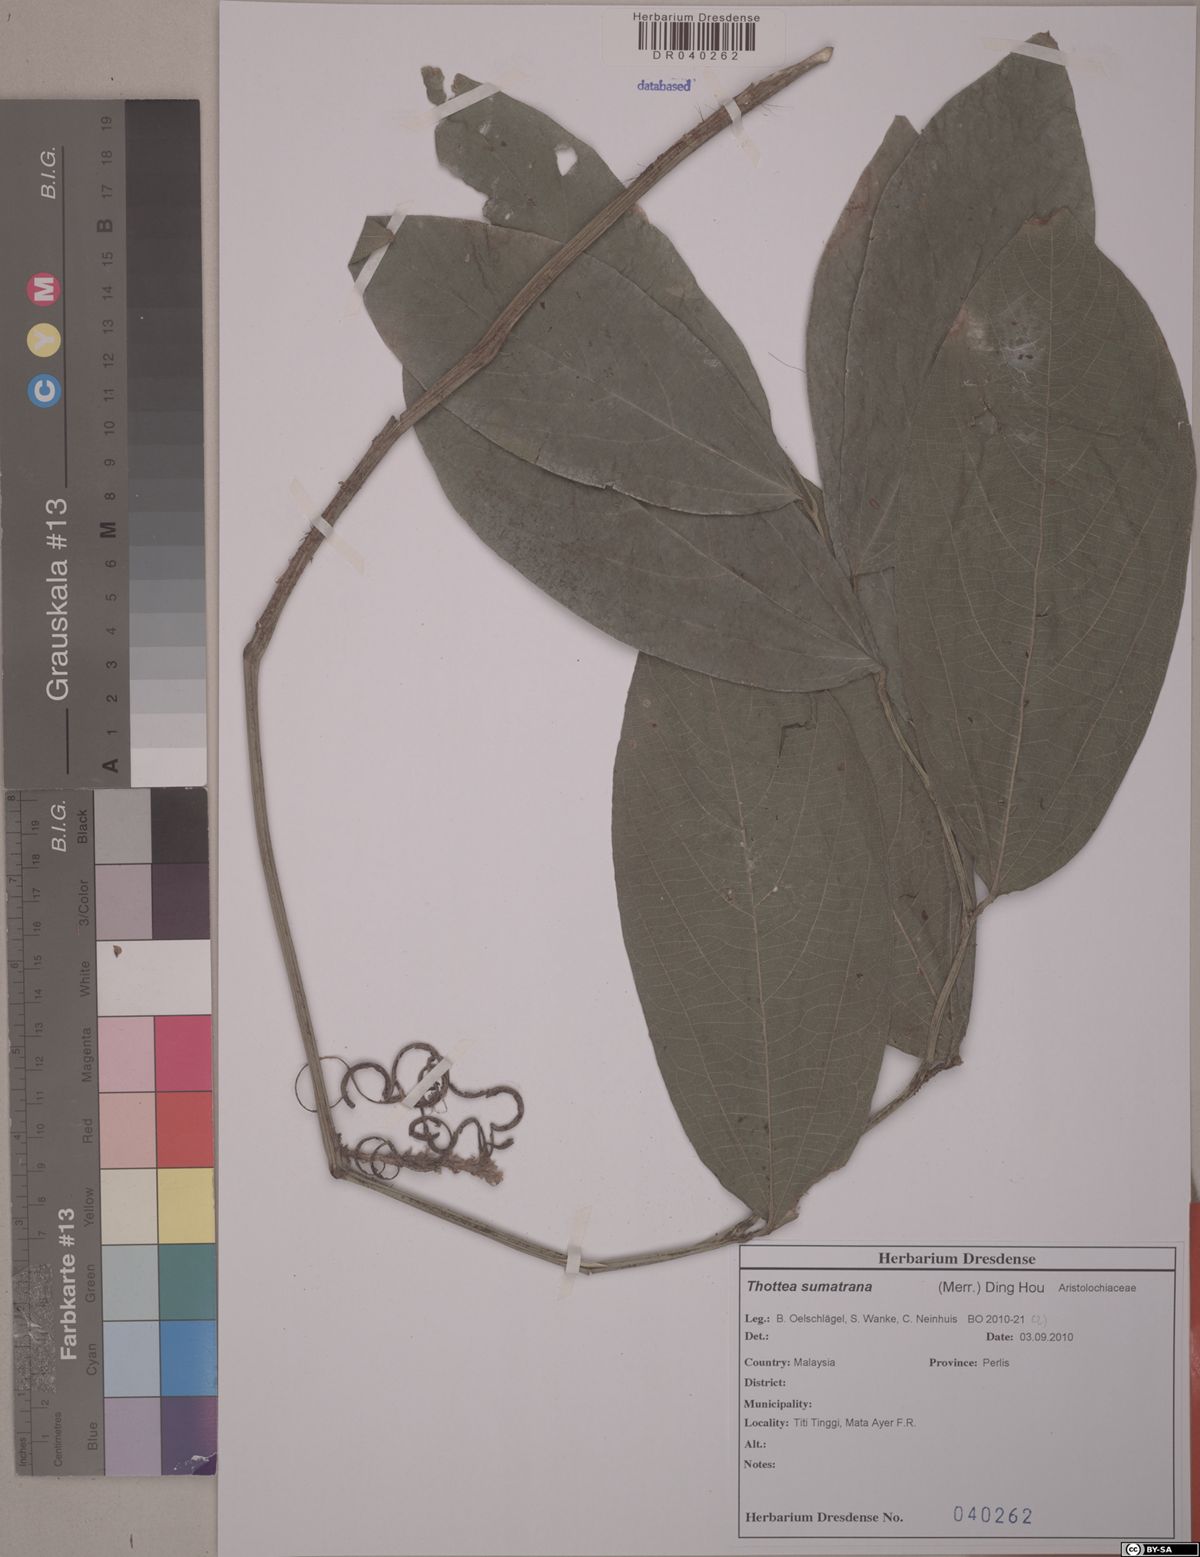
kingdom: Plantae
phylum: Tracheophyta
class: Magnoliopsida
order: Piperales
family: Aristolochiaceae
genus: Thottea
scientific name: Thottea sumatrana
